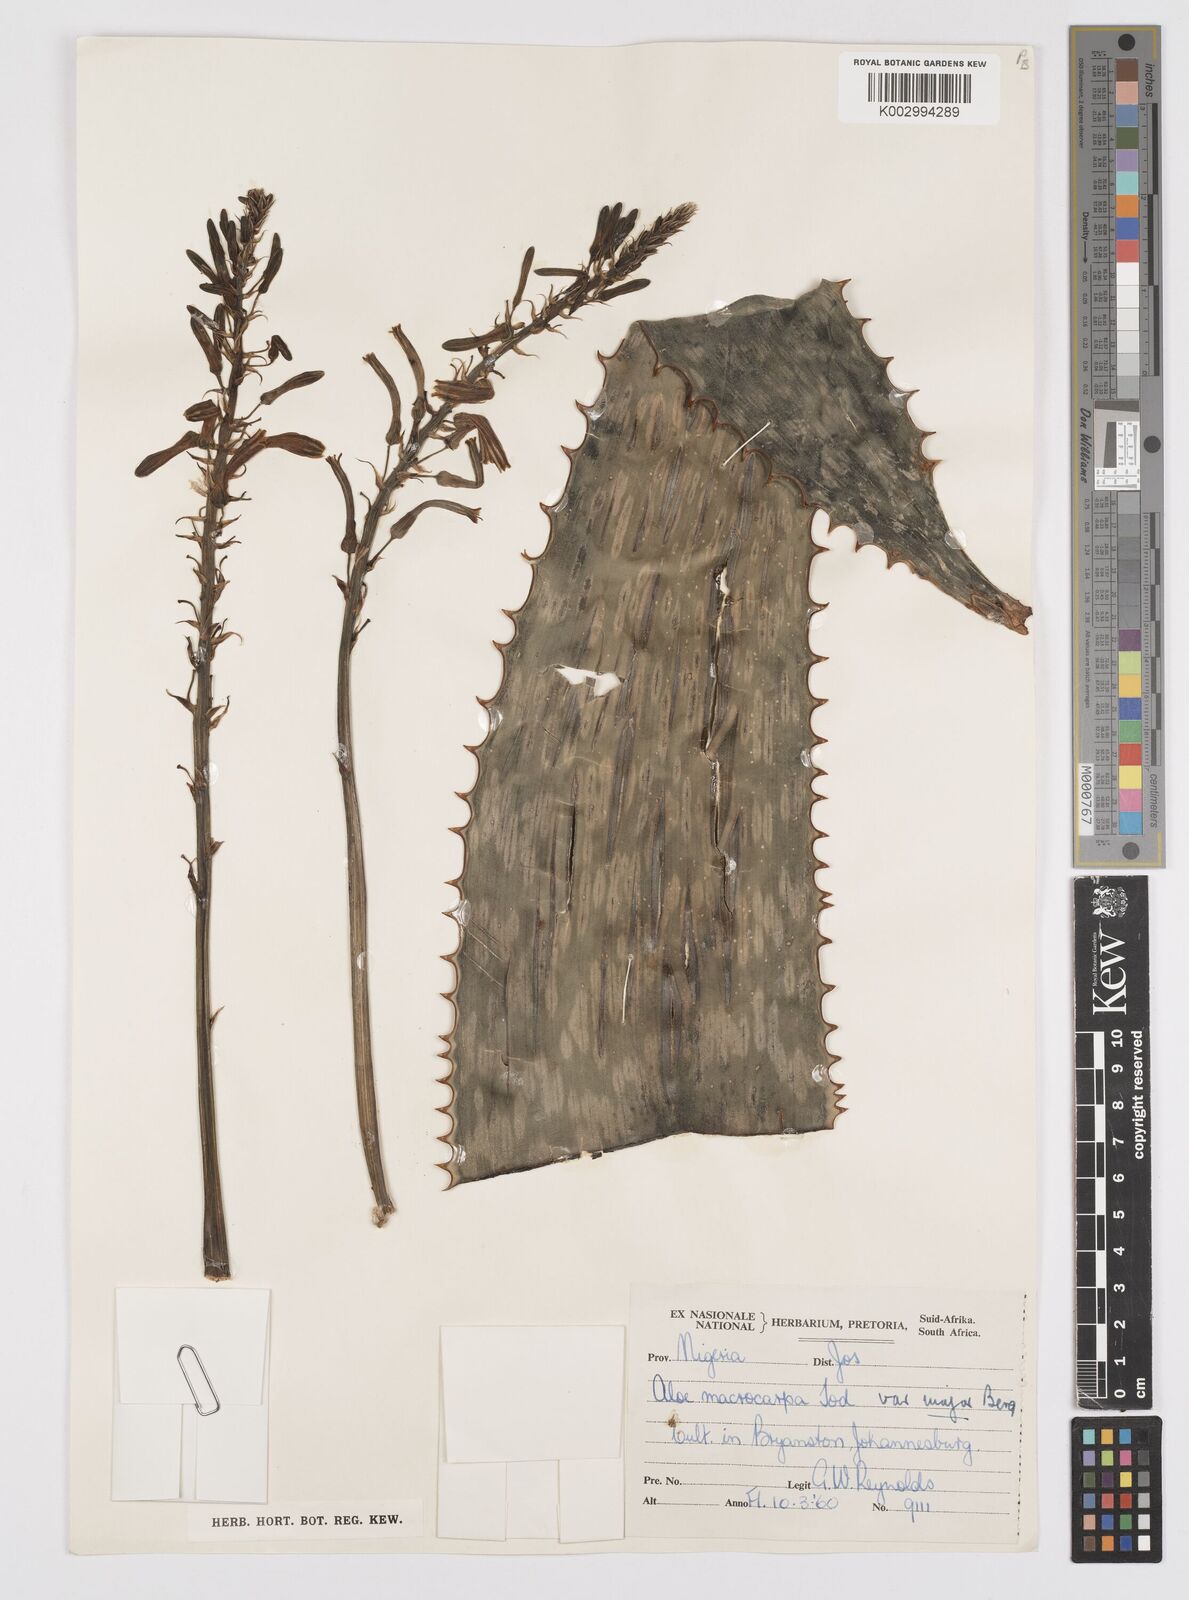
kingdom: Plantae
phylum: Tracheophyta
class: Liliopsida
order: Asparagales
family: Asphodelaceae
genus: Aloe
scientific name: Aloe macrocarpa
